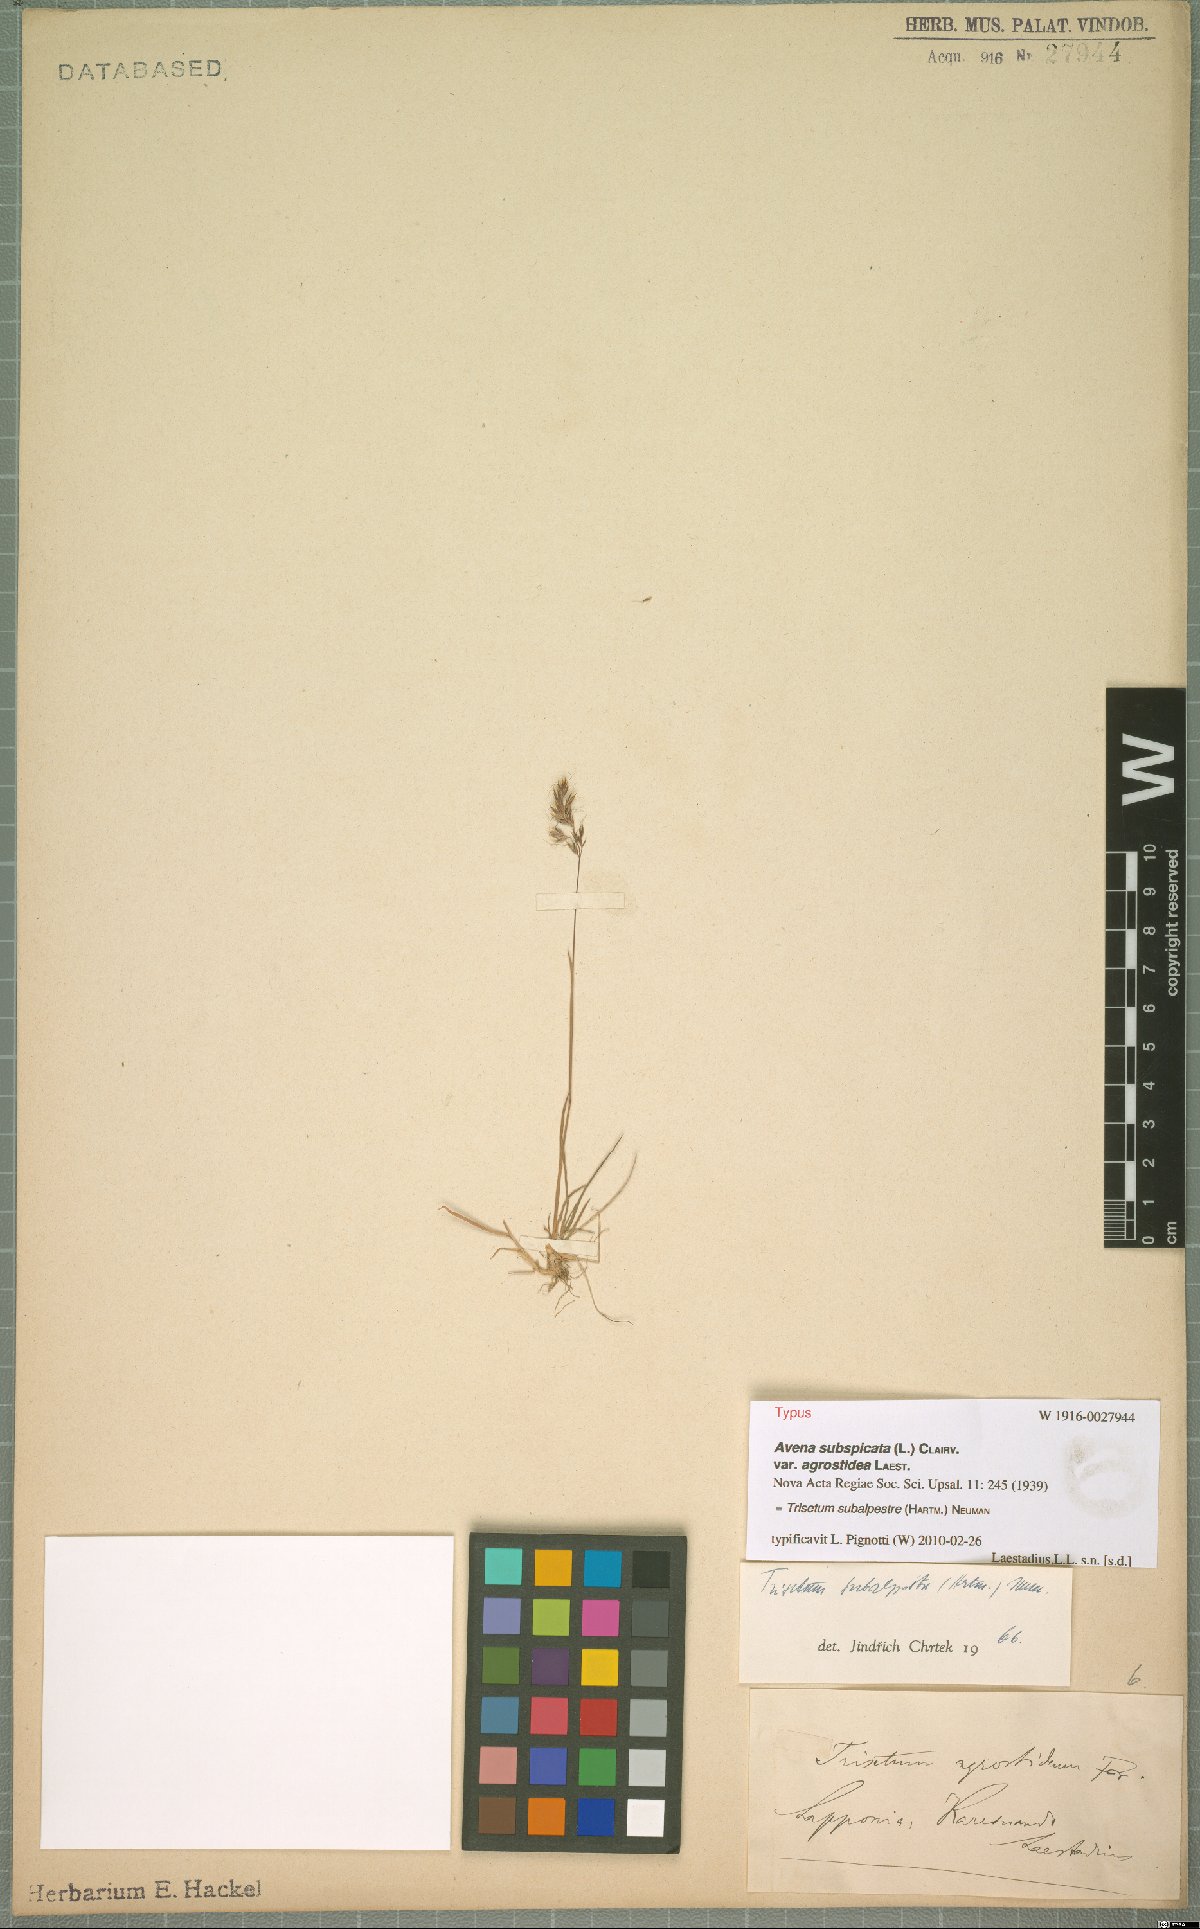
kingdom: Plantae
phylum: Tracheophyta
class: Liliopsida
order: Poales
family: Poaceae
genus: Koeleria
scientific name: Koeleria subalpestris
